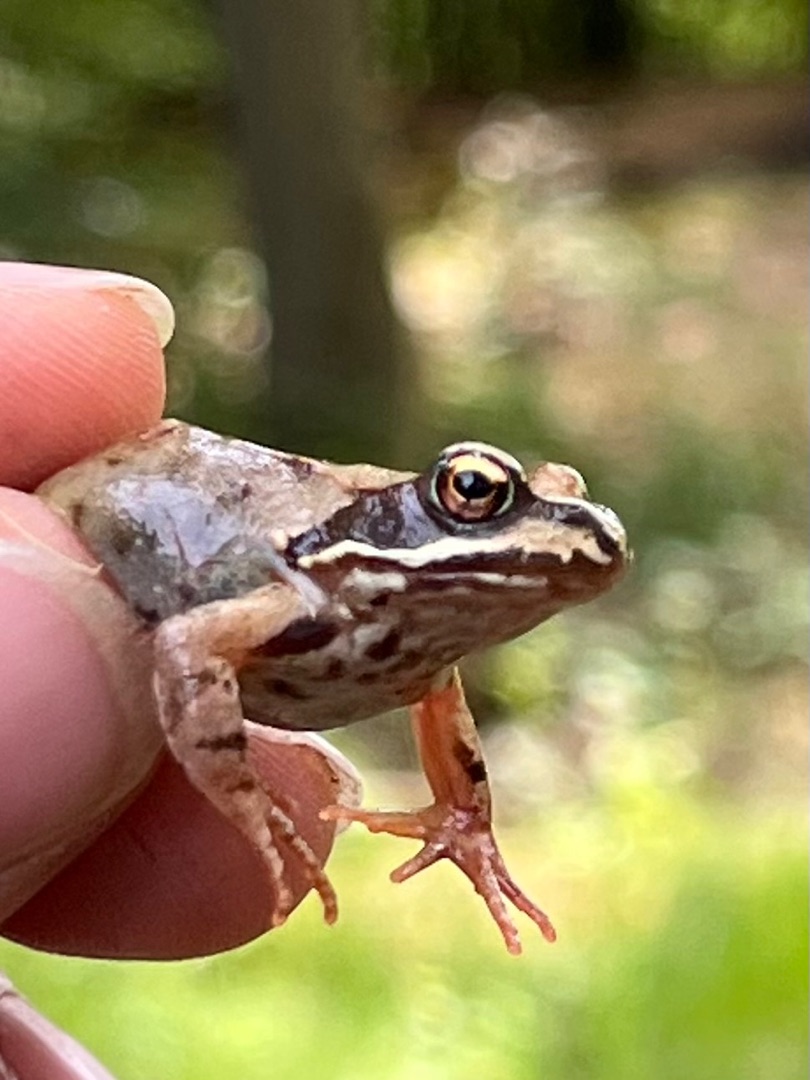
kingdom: Animalia
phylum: Chordata
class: Amphibia
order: Anura
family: Ranidae
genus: Rana
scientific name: Rana temporaria
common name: Butsnudet frø
